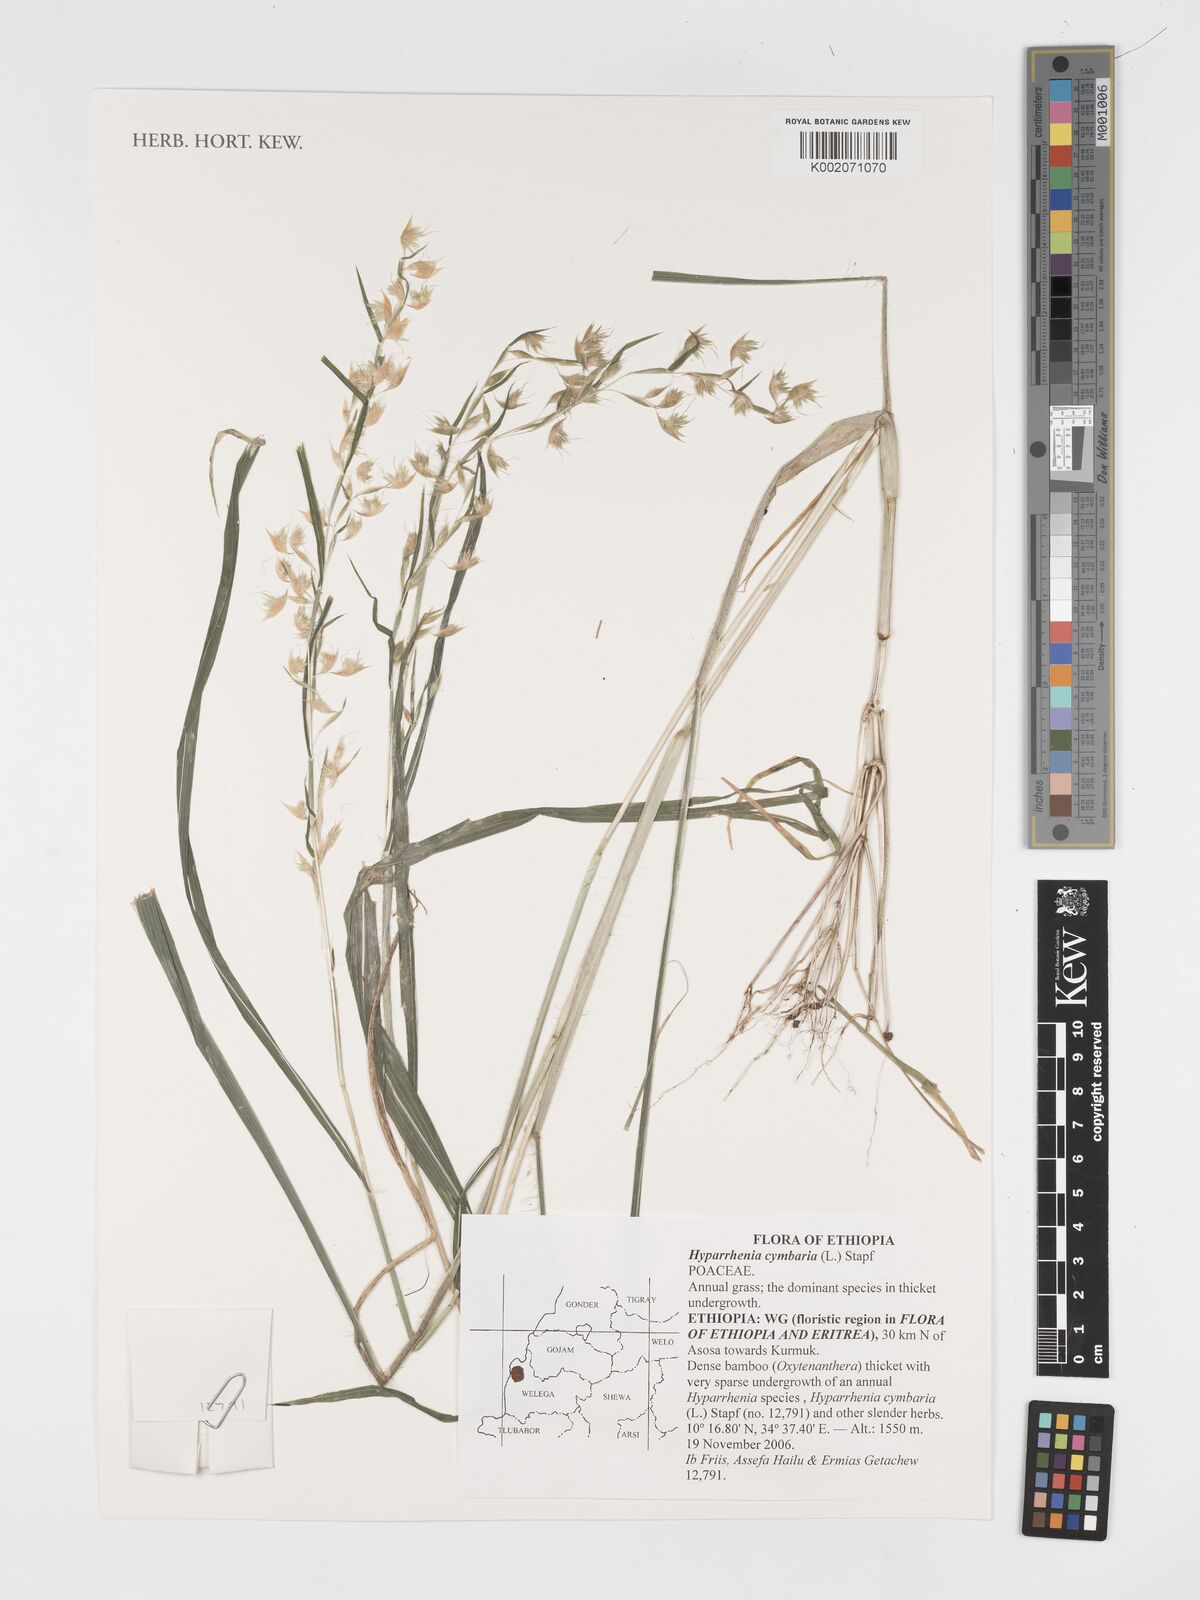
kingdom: Plantae
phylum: Tracheophyta
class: Liliopsida
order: Poales
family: Poaceae
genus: Hyparrhenia
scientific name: Hyparrhenia cymbaria
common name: Boat thatching grass
